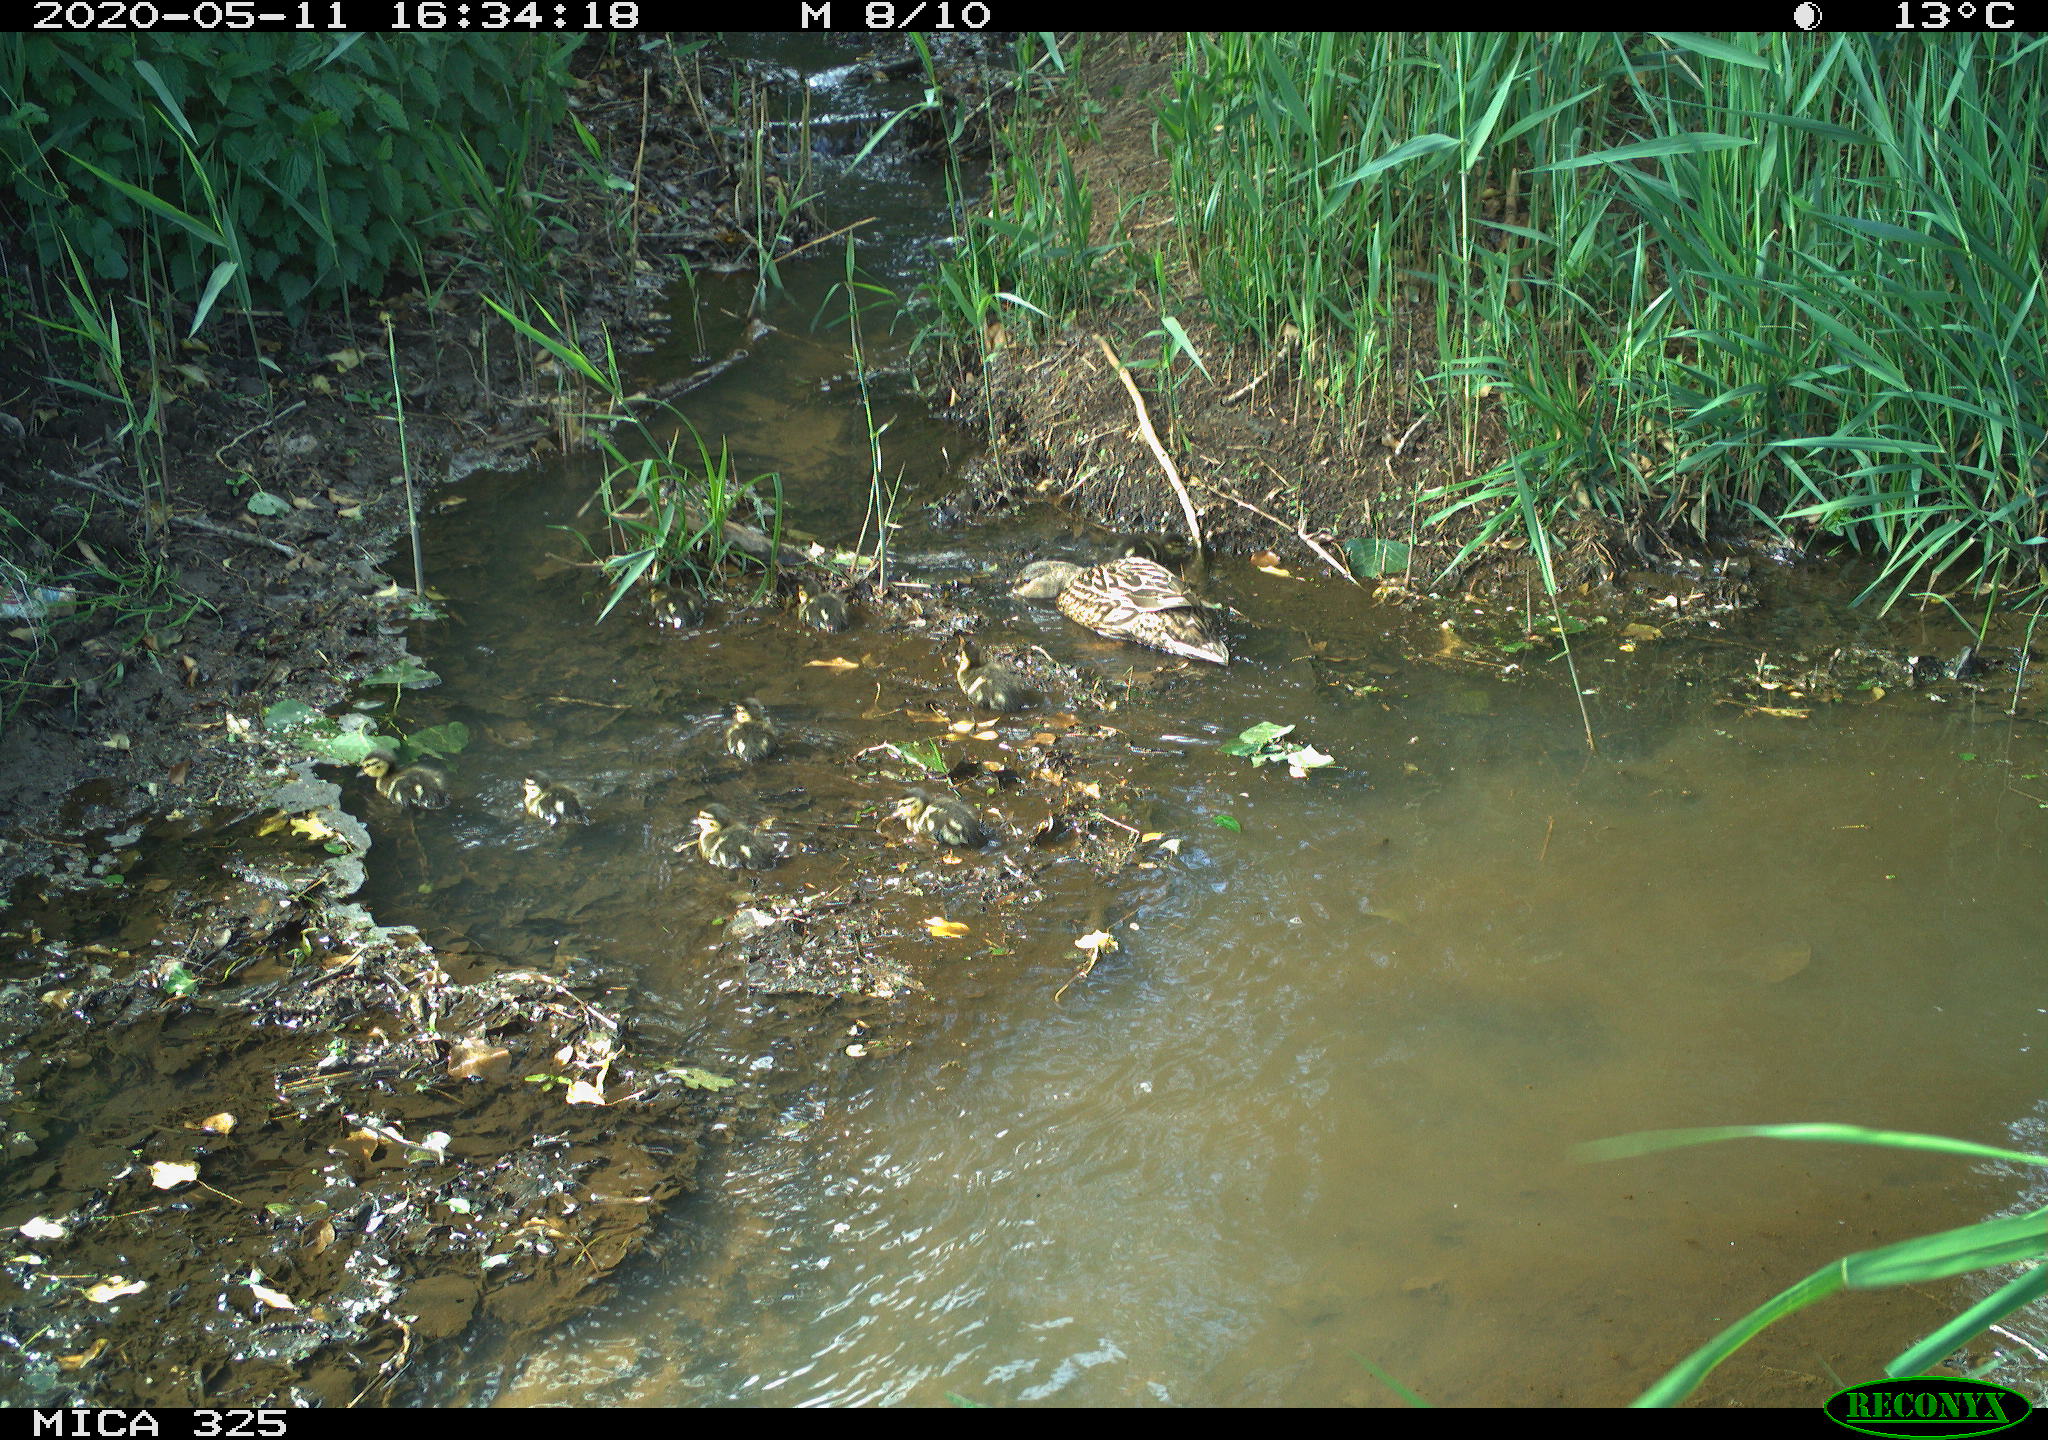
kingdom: Animalia
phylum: Chordata
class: Aves
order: Anseriformes
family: Anatidae
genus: Anas
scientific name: Anas platyrhynchos
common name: Mallard
